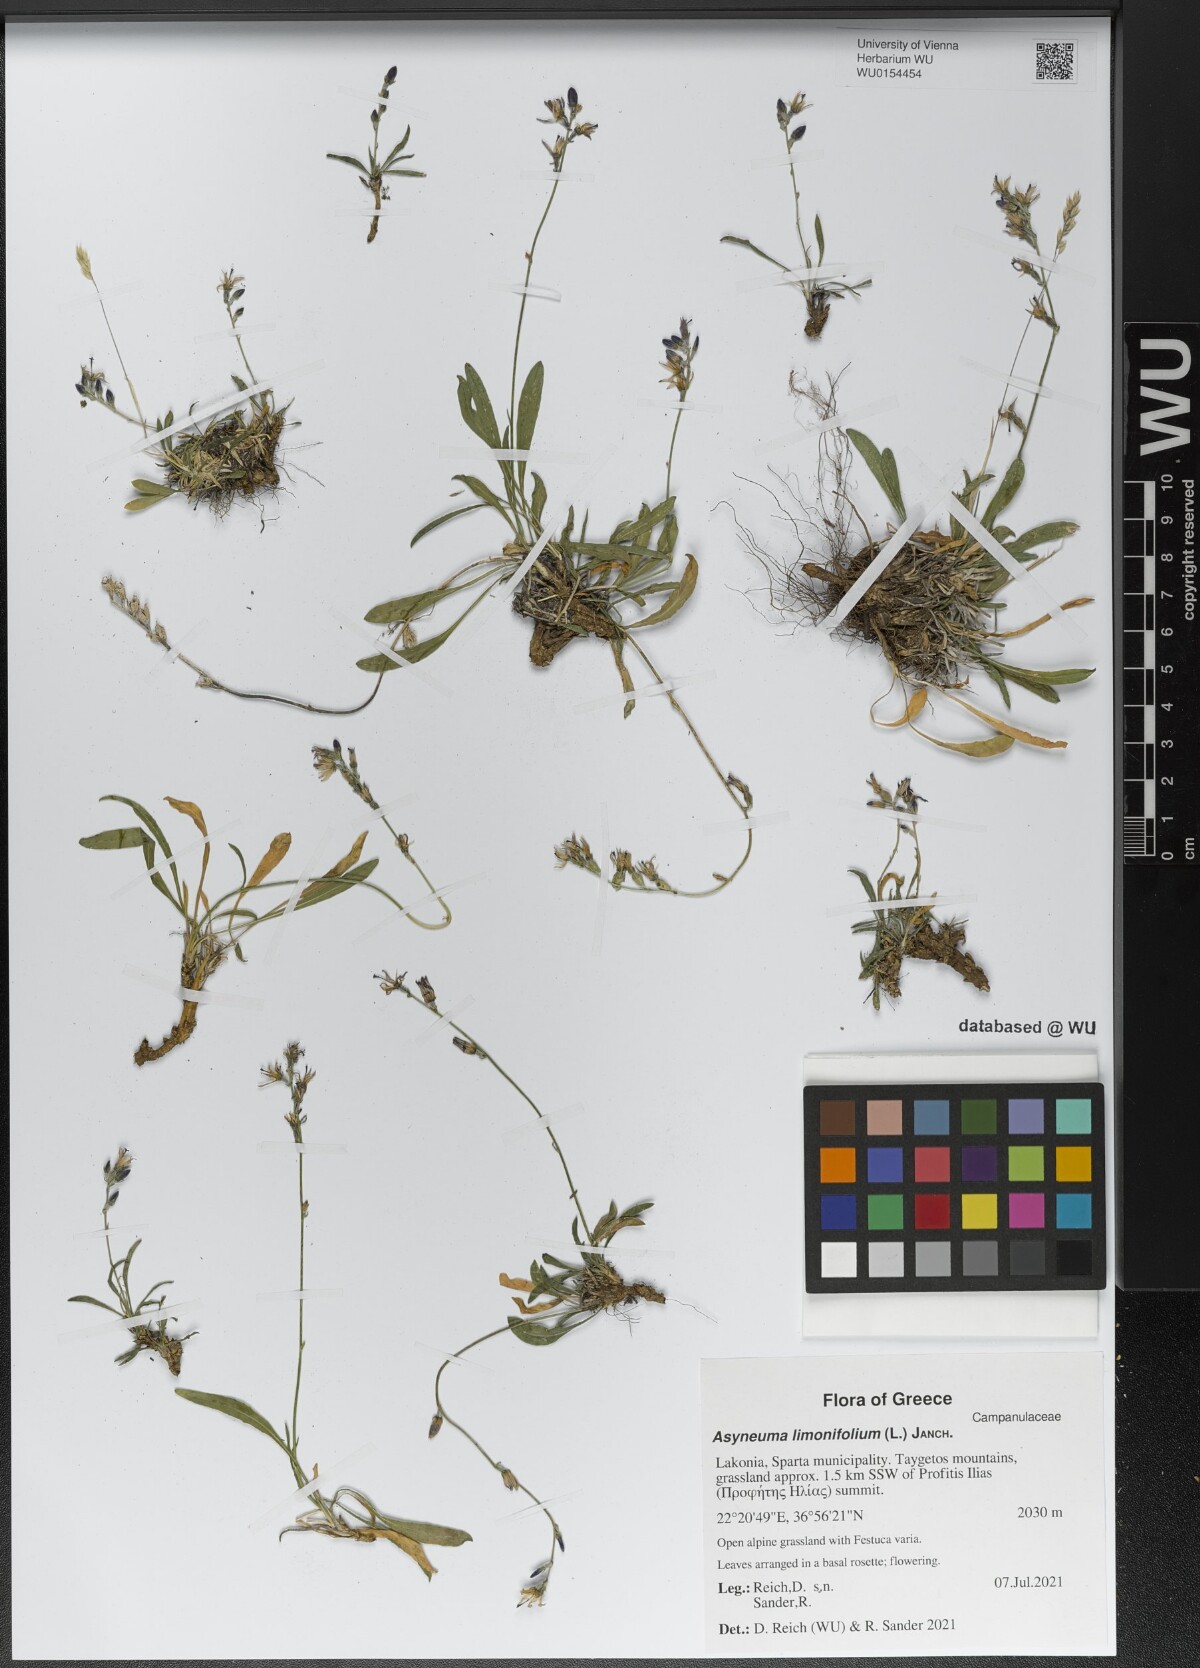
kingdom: Plantae
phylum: Tracheophyta
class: Magnoliopsida
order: Asterales
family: Campanulaceae
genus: Asyneuma
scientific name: Asyneuma limonifolium
